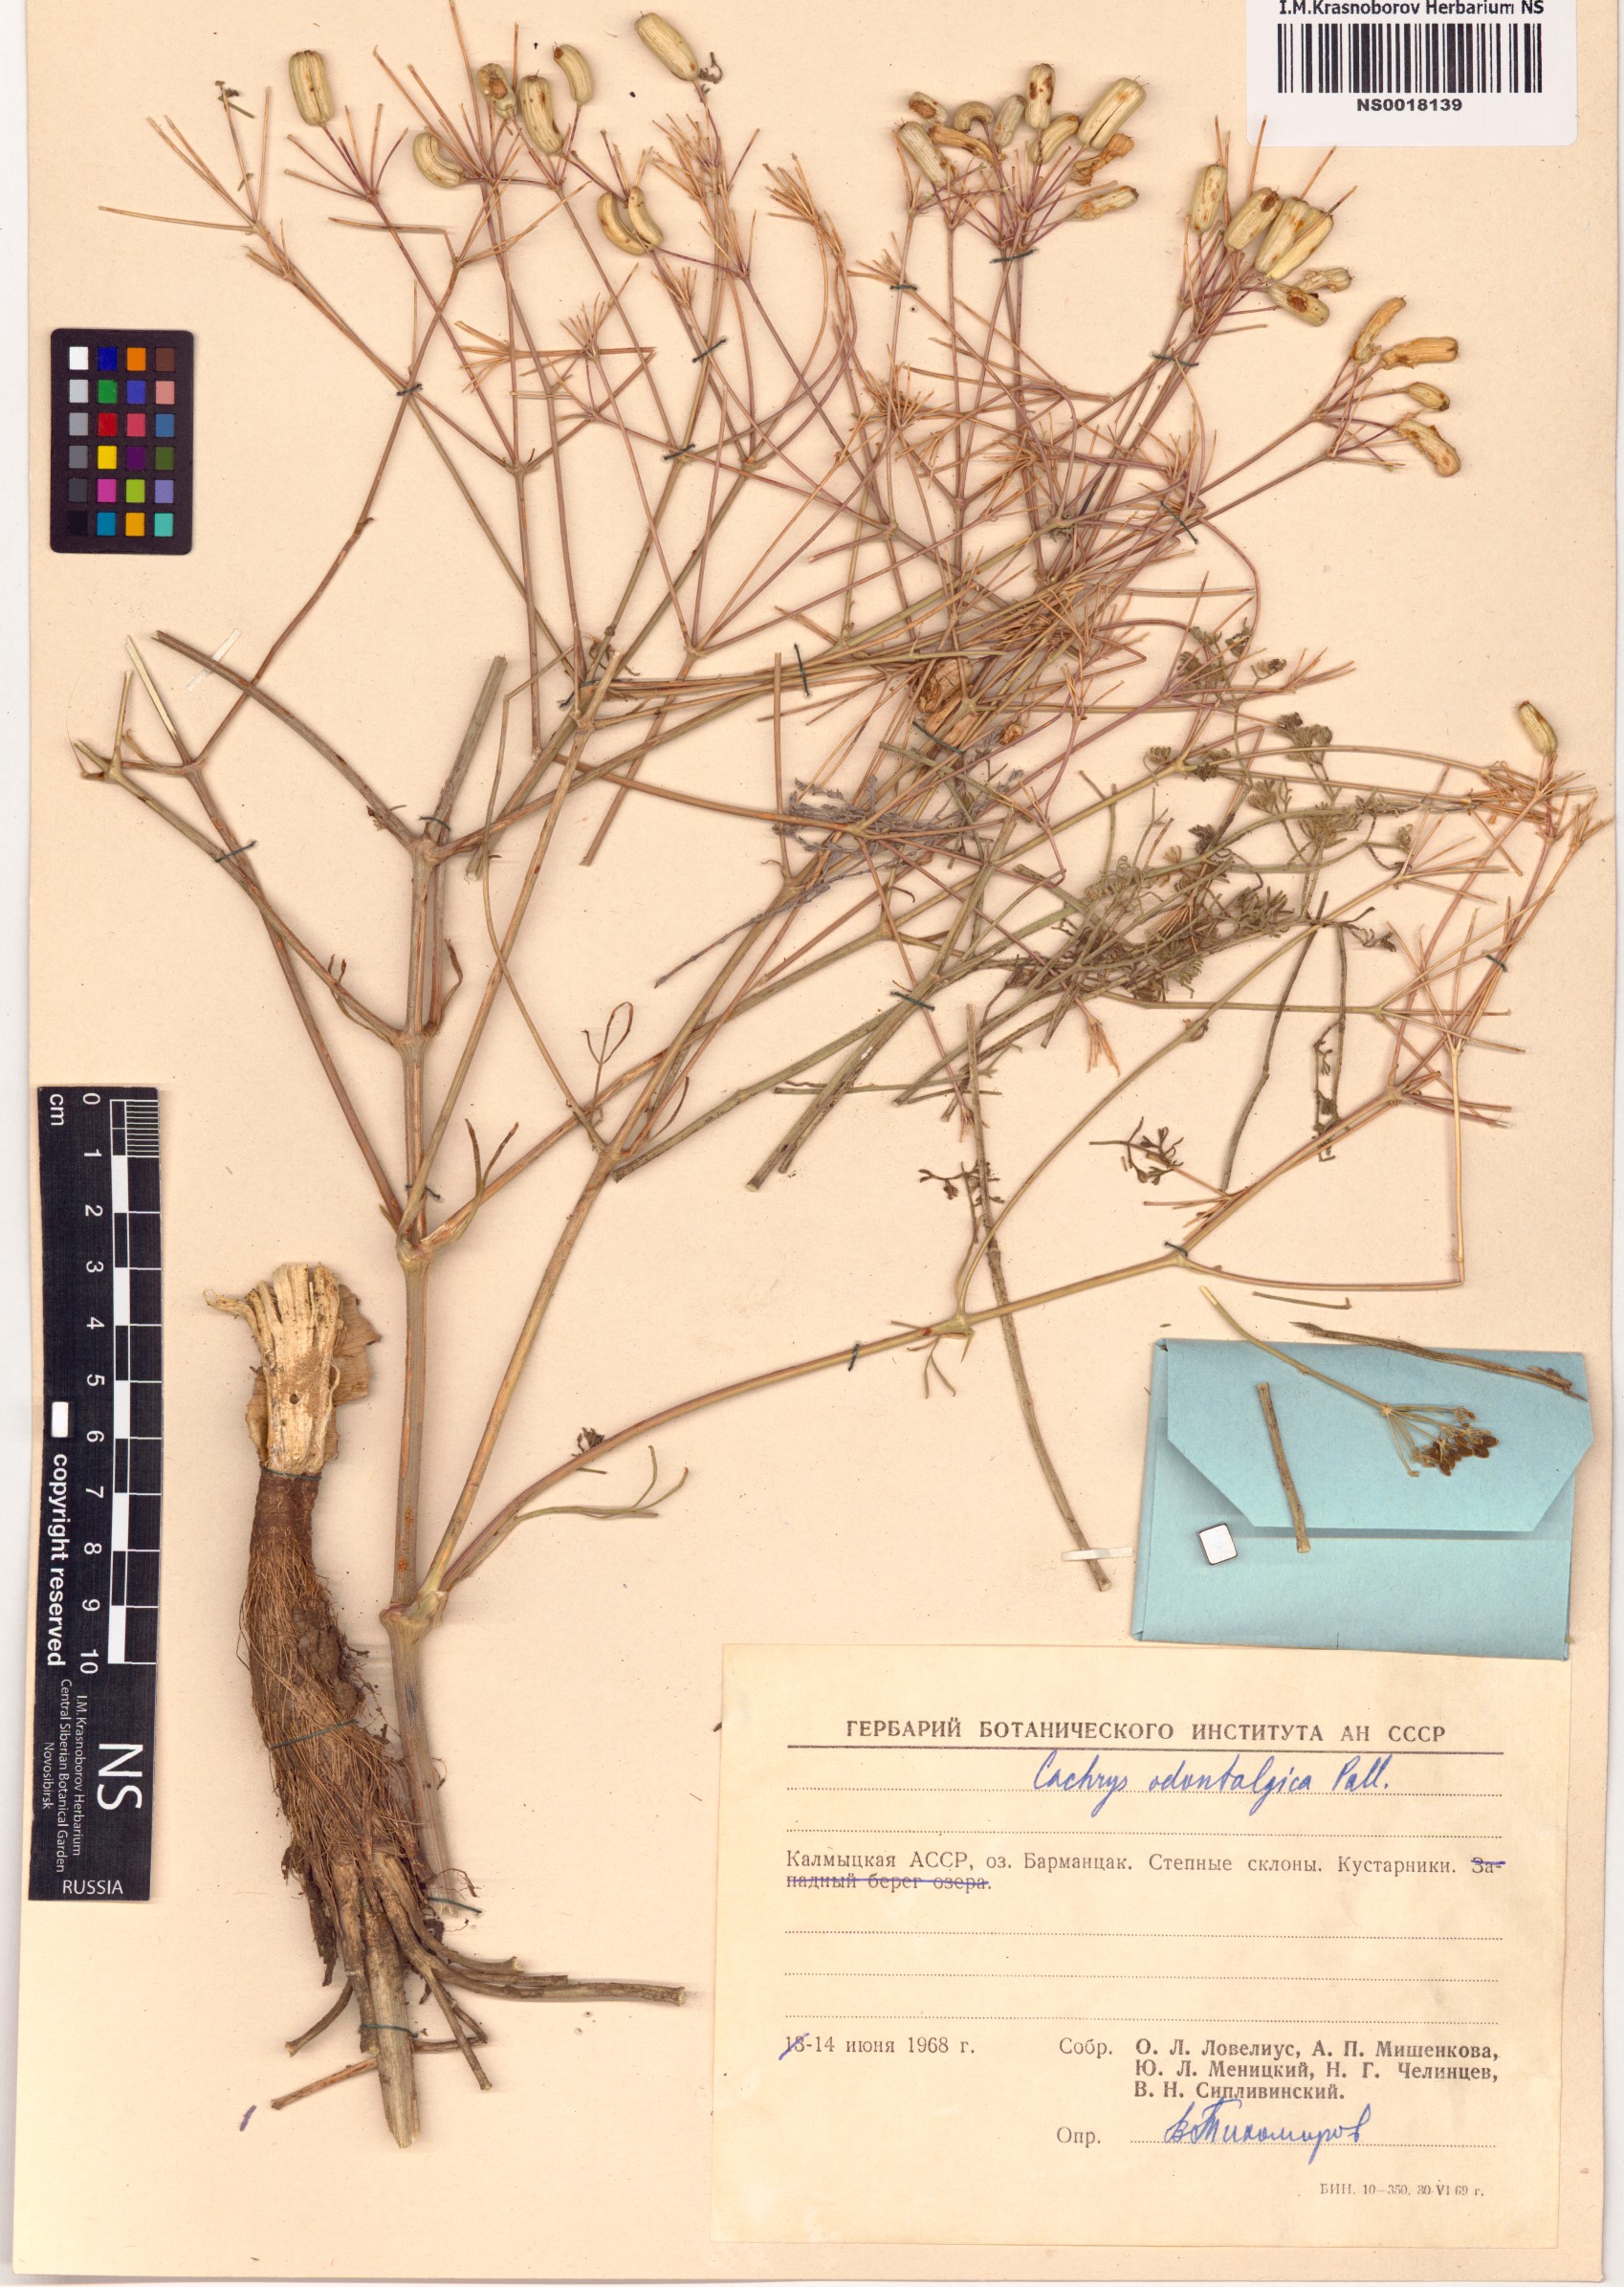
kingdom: Plantae
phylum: Tracheophyta
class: Magnoliopsida
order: Apiales
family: Apiaceae
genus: Prangos
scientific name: Prangos odontalgica
